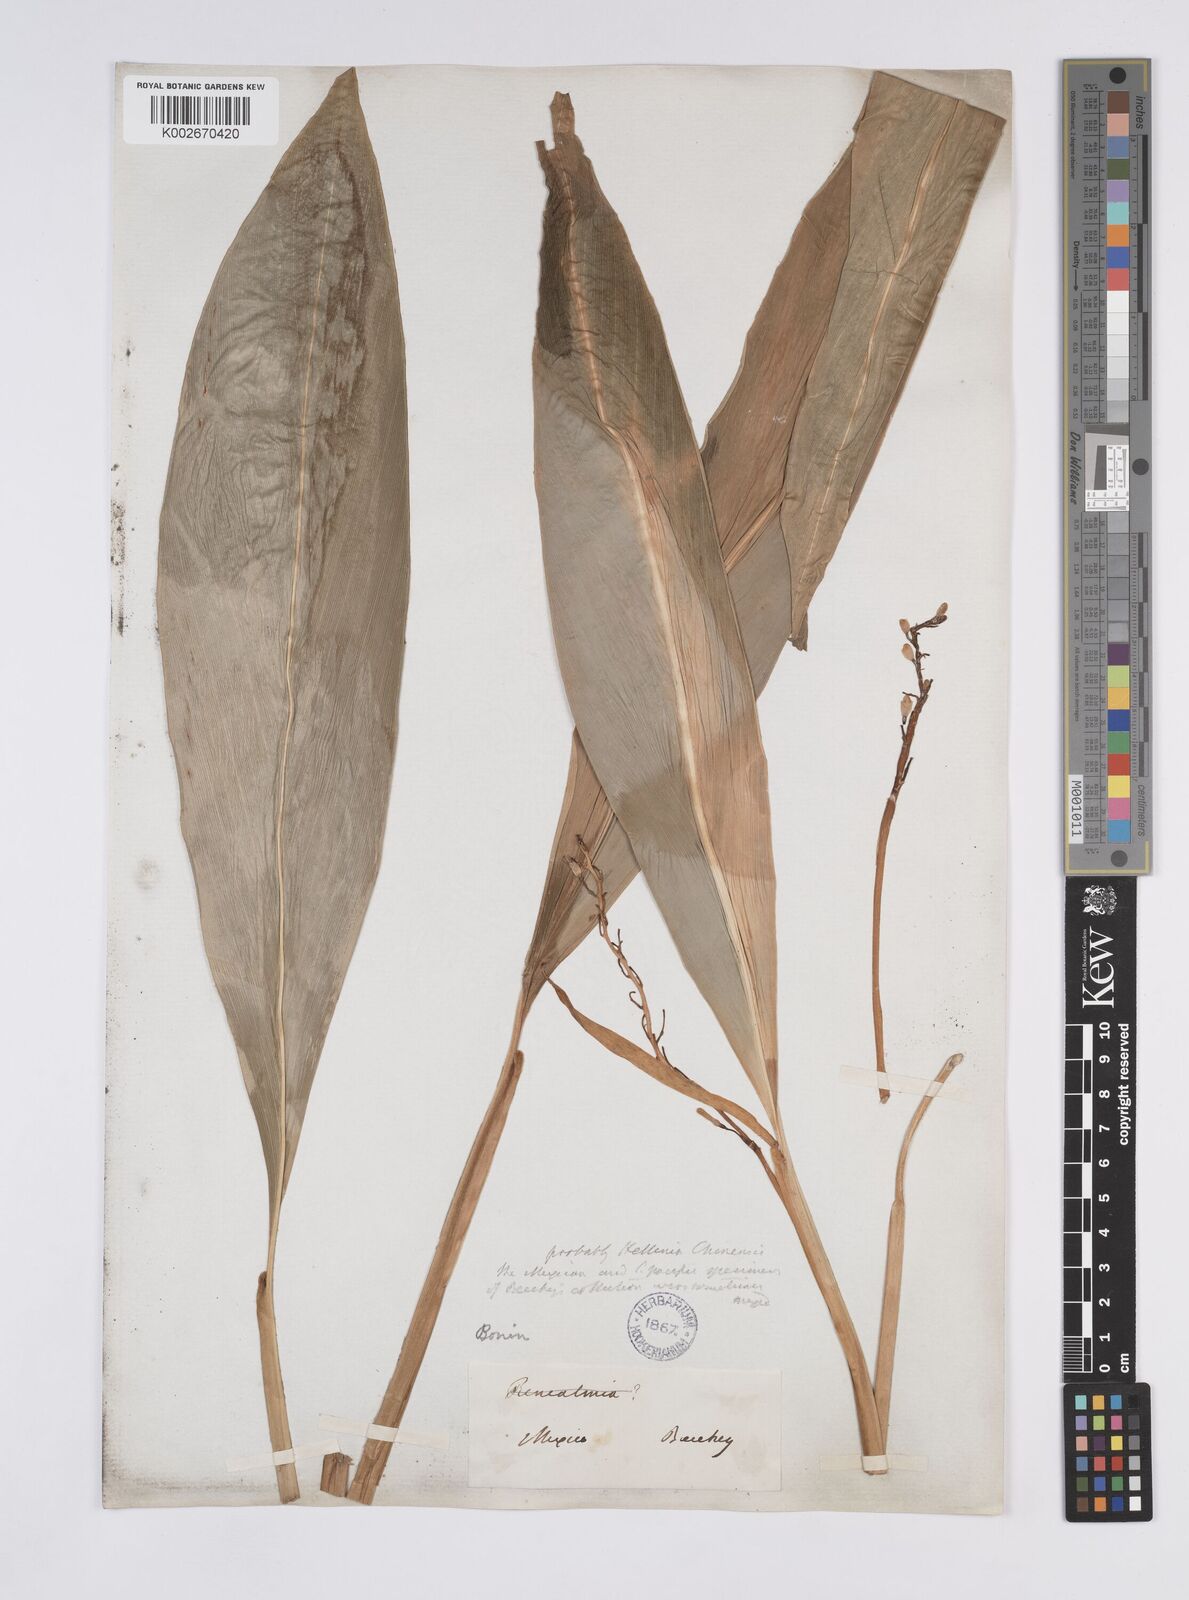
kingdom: Plantae
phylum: Tracheophyta
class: Liliopsida
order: Zingiberales
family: Zingiberaceae
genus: Alpinia
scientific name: Alpinia boninsimensis
